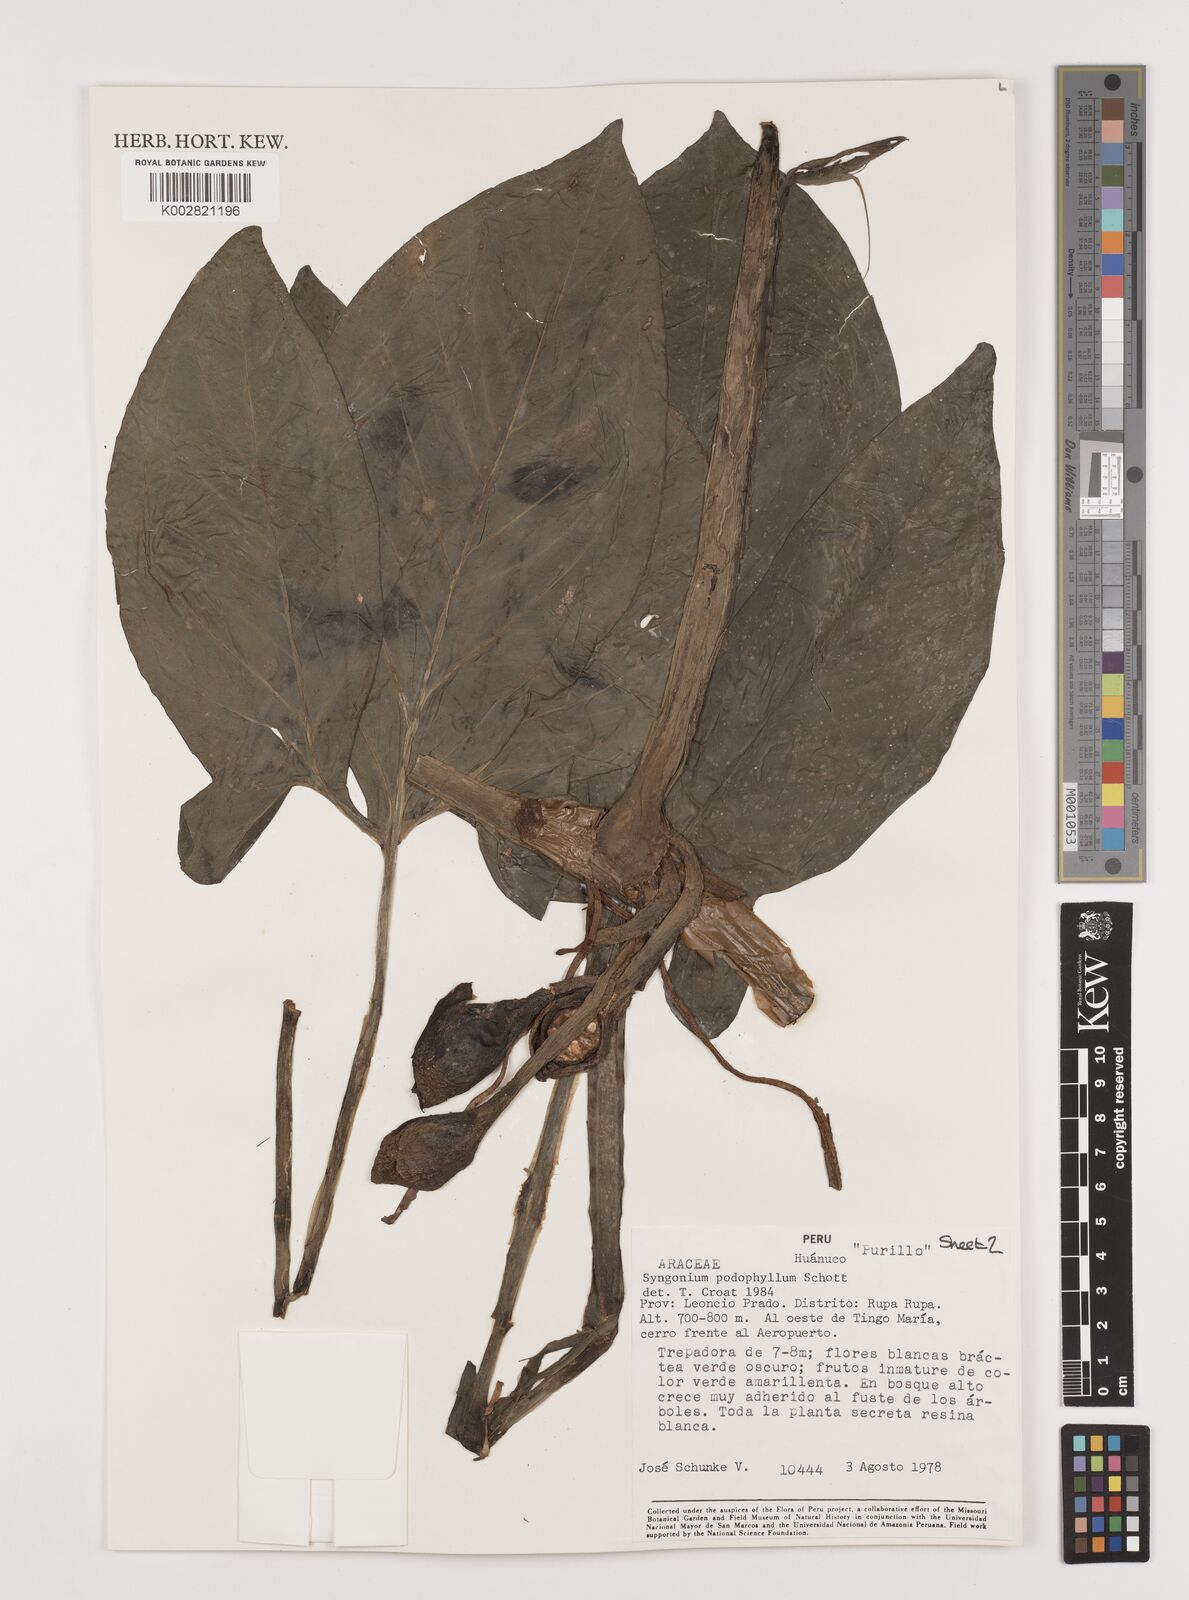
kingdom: Plantae
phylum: Tracheophyta
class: Liliopsida
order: Alismatales
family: Araceae
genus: Syngonium
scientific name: Syngonium podophyllum
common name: American evergreen
